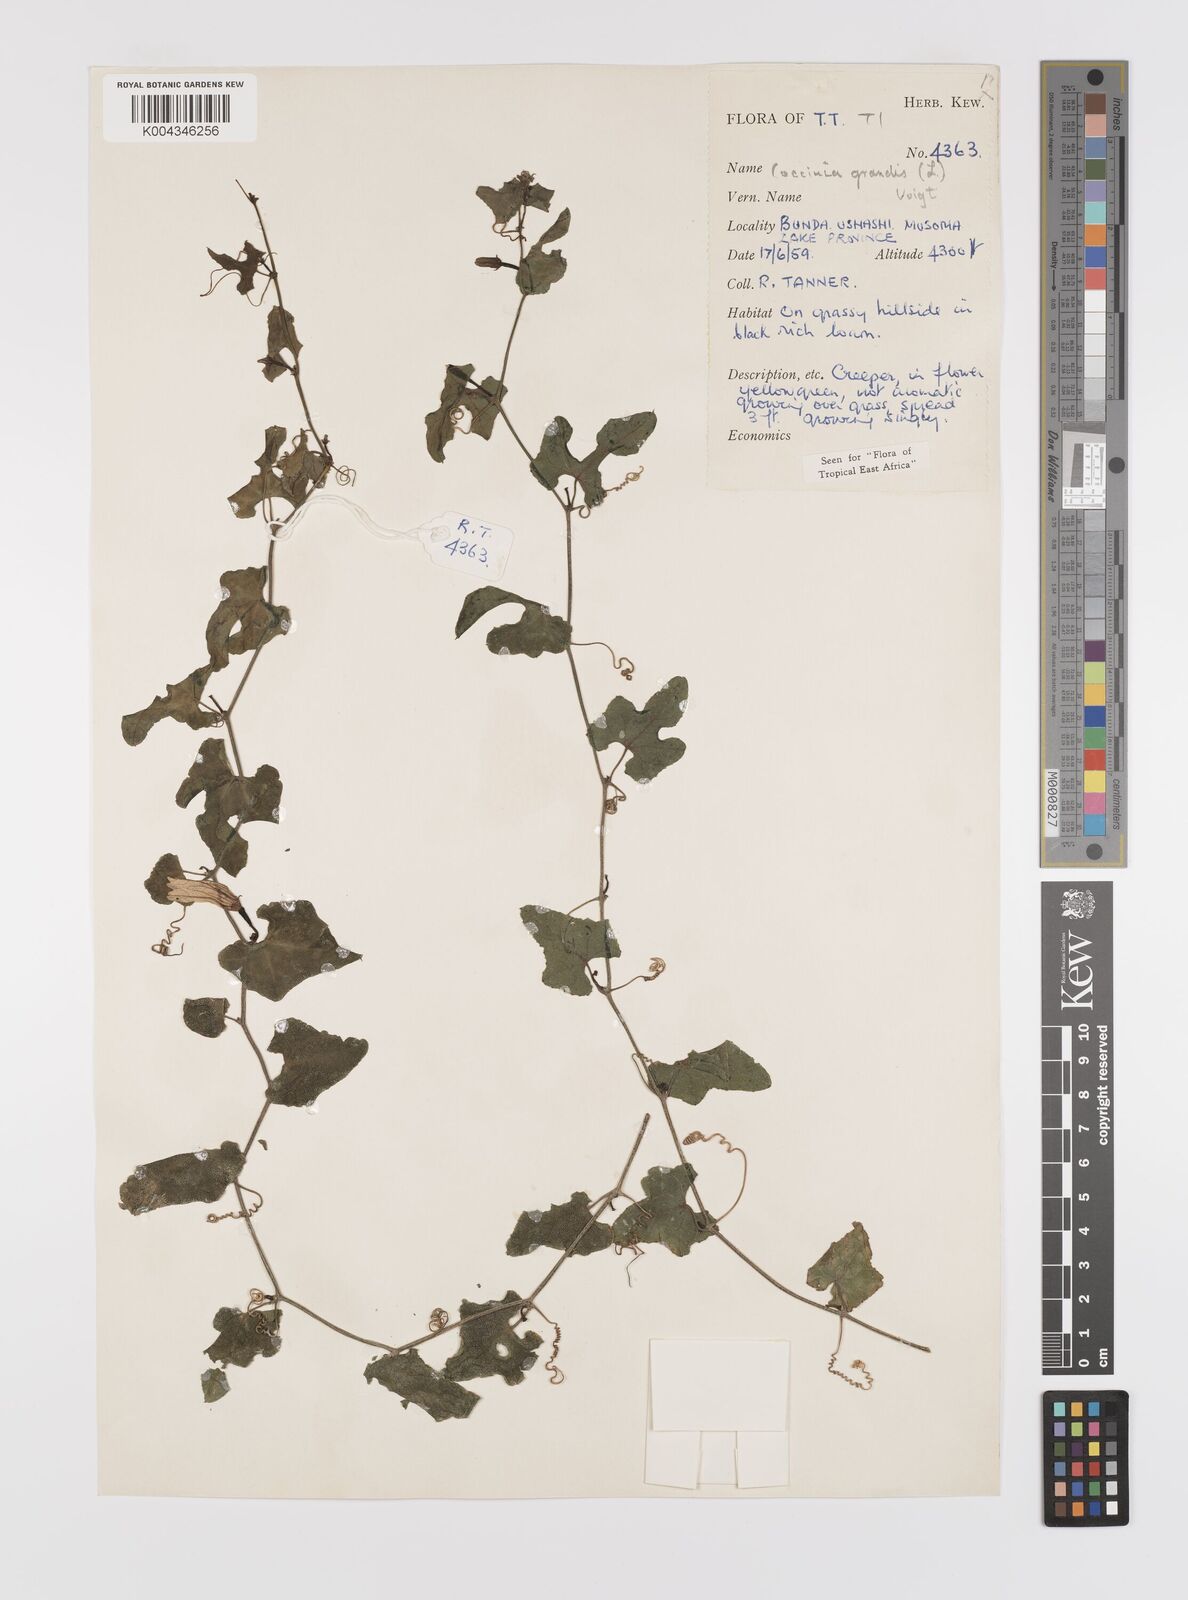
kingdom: Plantae
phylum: Tracheophyta
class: Magnoliopsida
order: Cucurbitales
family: Cucurbitaceae
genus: Coccinia
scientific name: Coccinia grandis
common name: Ivy gourd
